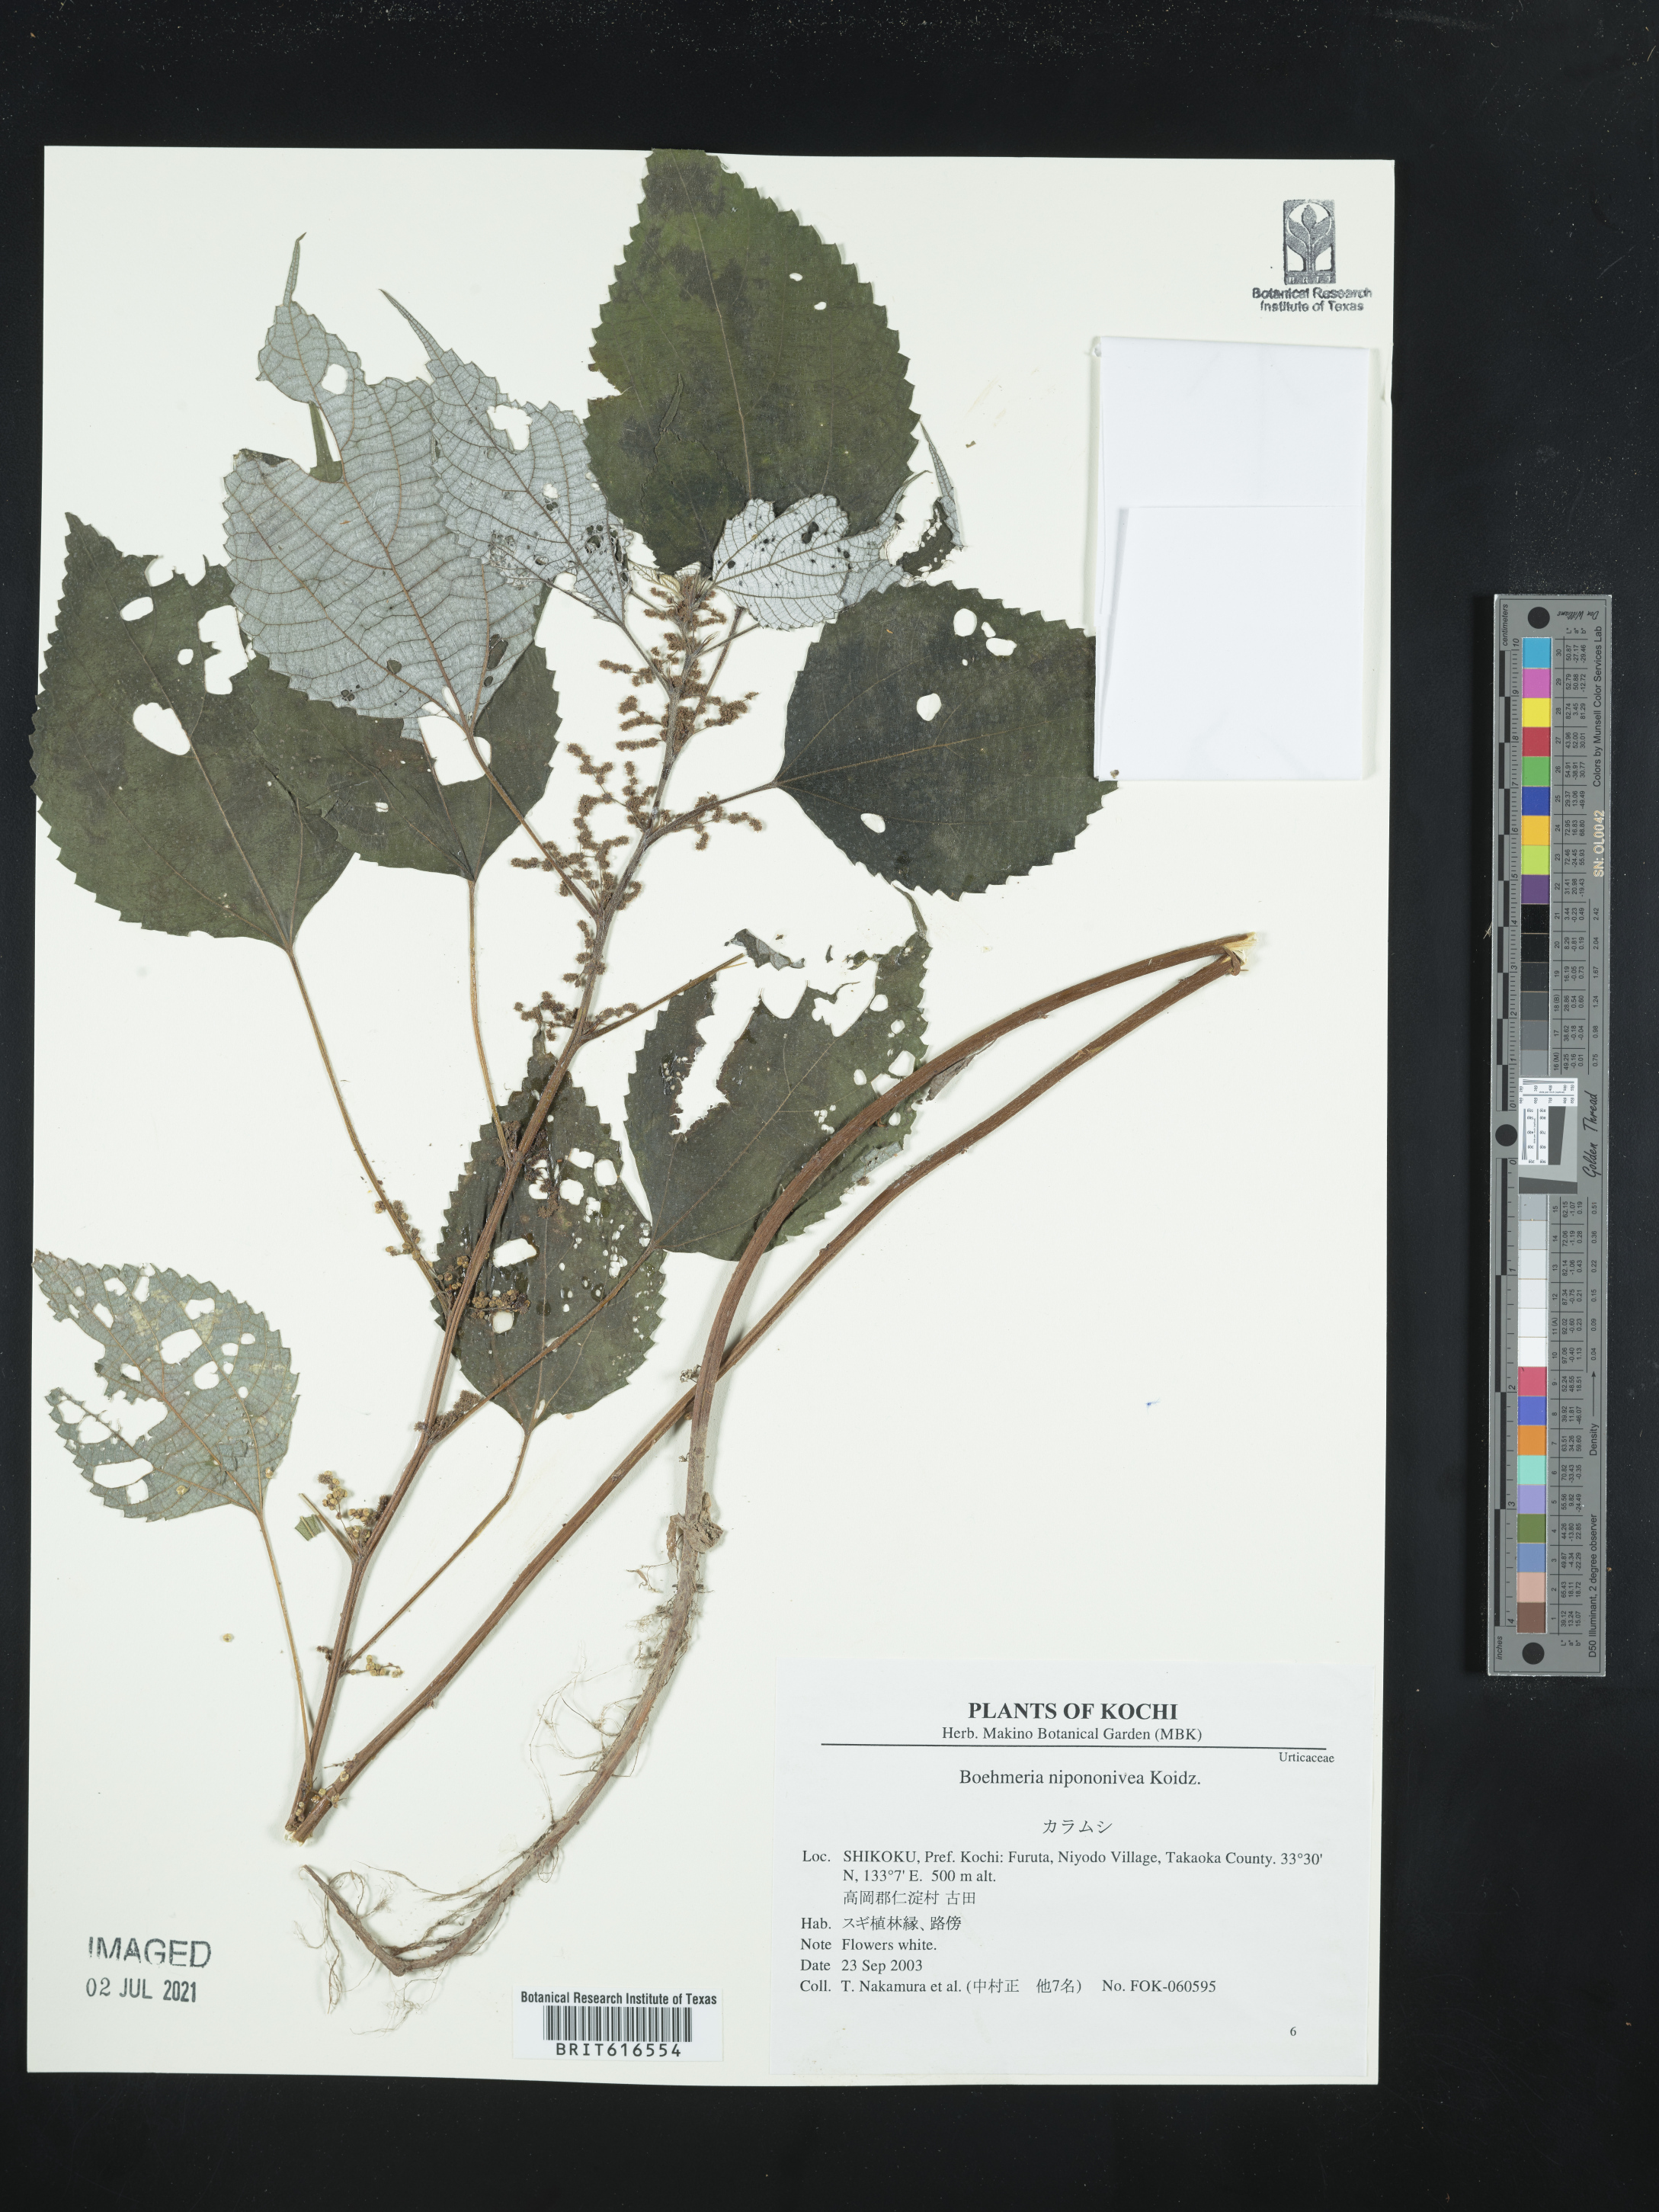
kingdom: Plantae
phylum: Tracheophyta
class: Magnoliopsida
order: Rosales
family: Urticaceae
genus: Boehmeria
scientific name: Boehmeria nivea
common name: Ramie chinese grass
